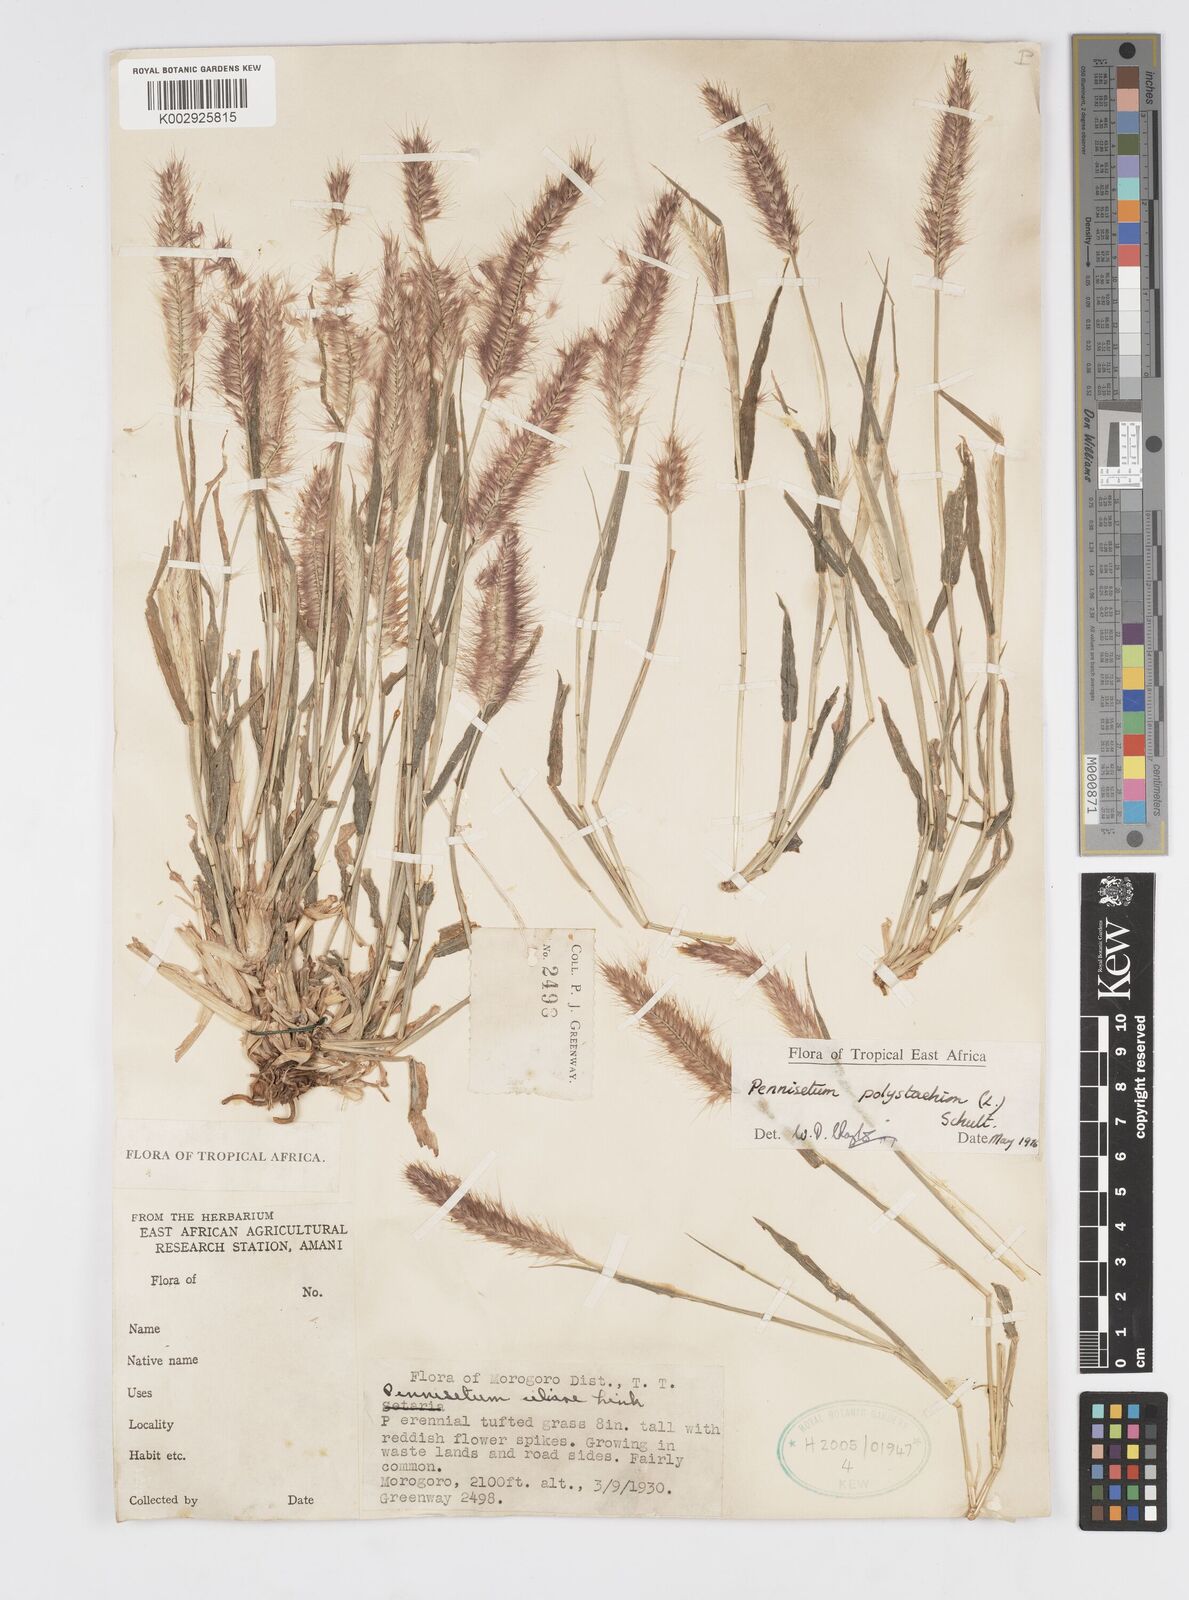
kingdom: Plantae
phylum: Tracheophyta
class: Liliopsida
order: Poales
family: Poaceae
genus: Setaria
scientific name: Setaria parviflora
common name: Knotroot bristle-grass
